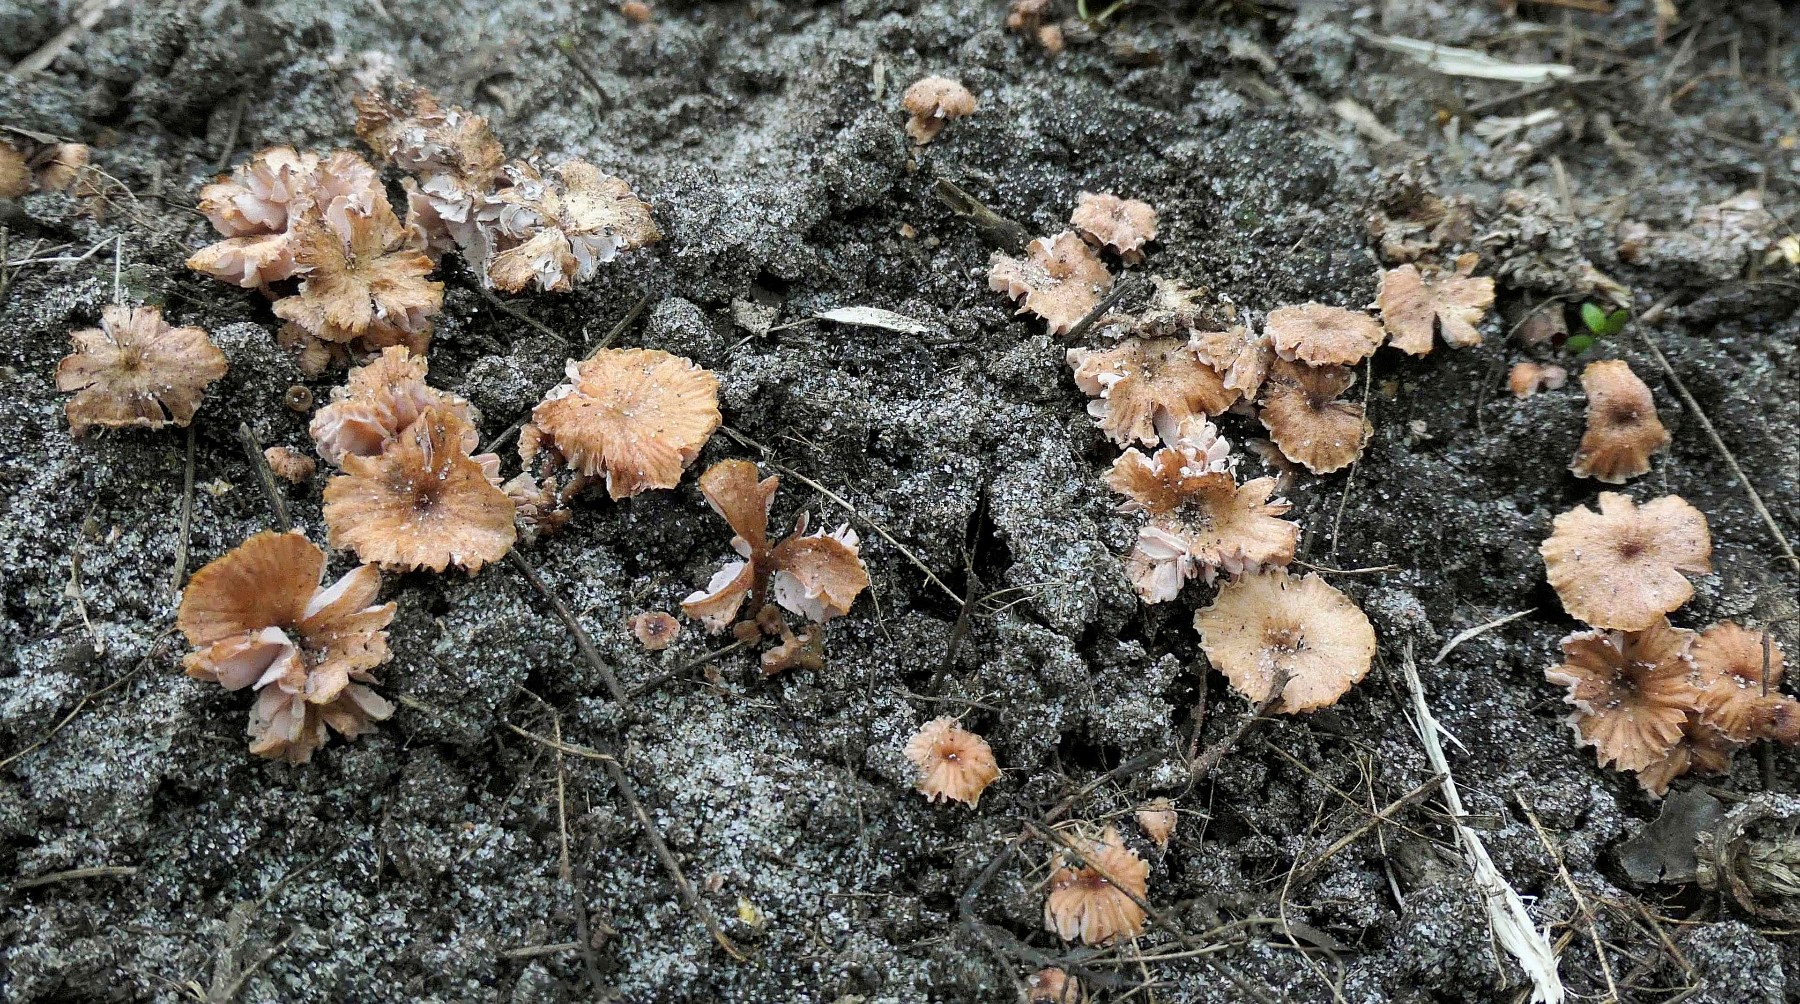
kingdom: Fungi
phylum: Basidiomycota
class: Agaricomycetes
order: Agaricales
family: Hydnangiaceae
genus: Laccaria
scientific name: Laccaria tortilis
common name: krybende ametysthat
